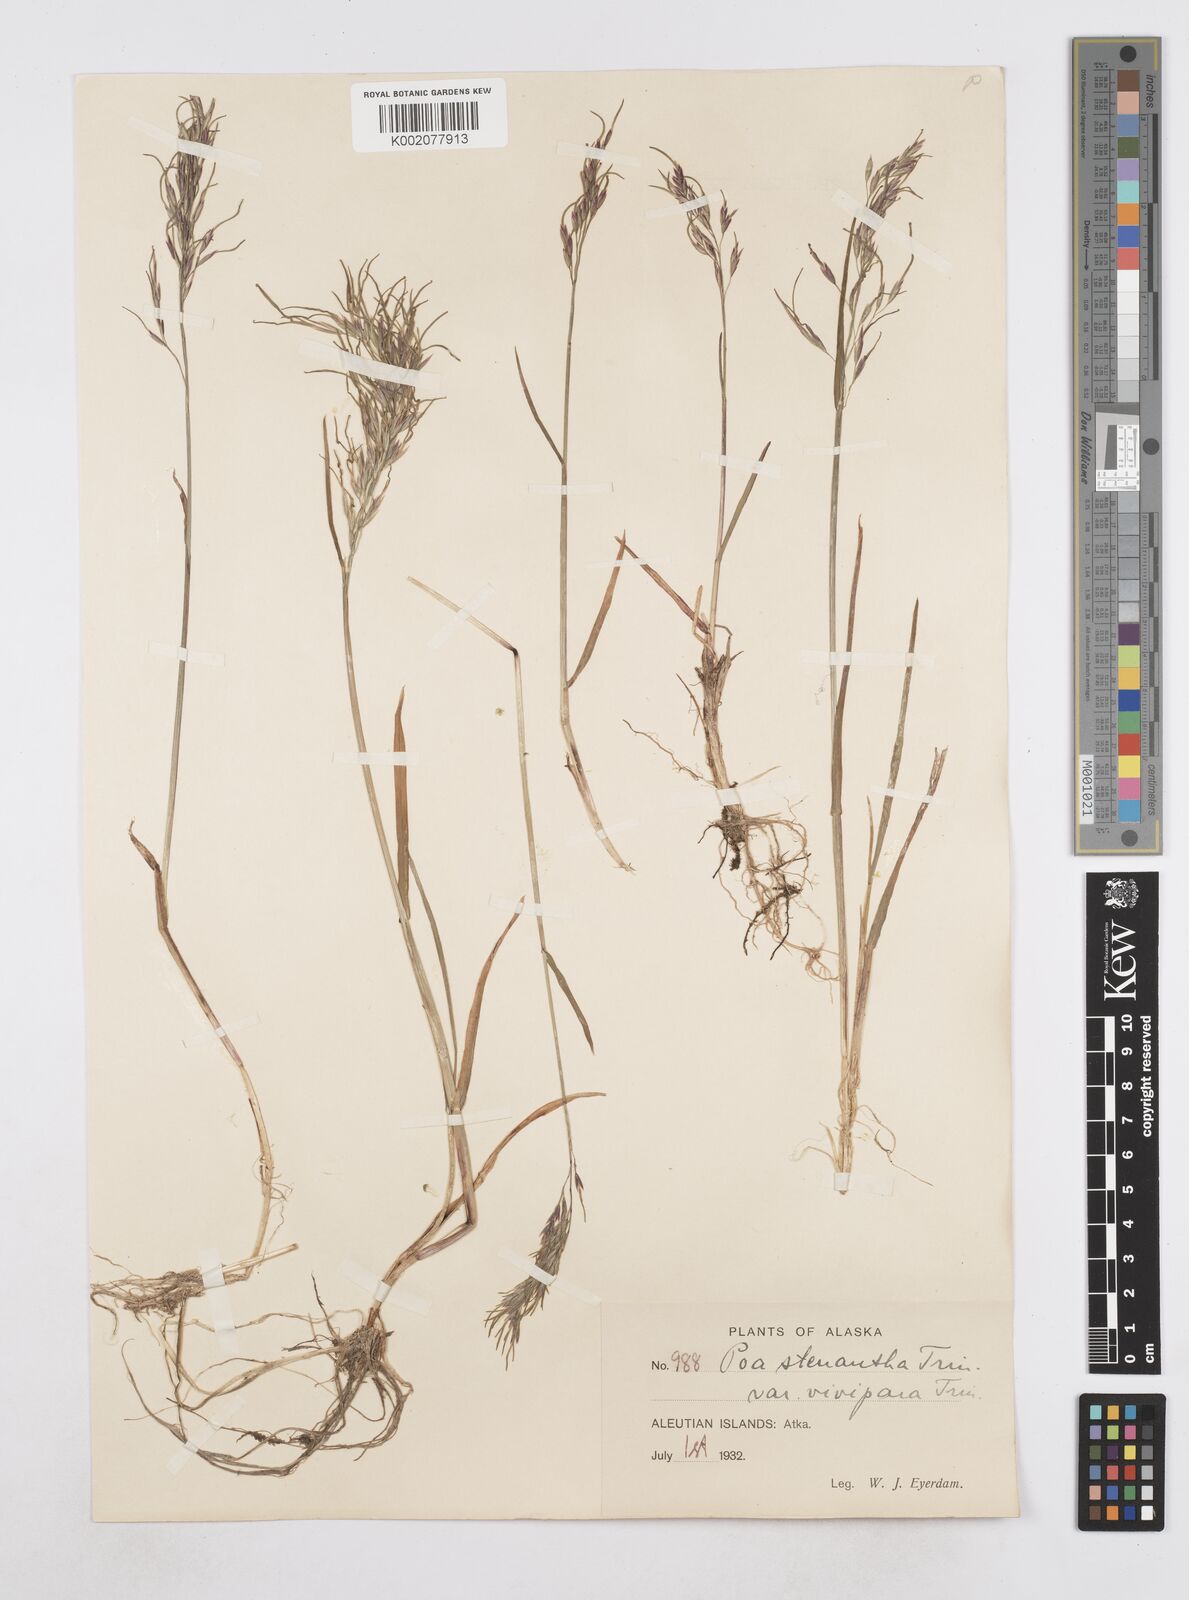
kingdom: Plantae
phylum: Tracheophyta
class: Liliopsida
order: Poales
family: Poaceae
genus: Poa
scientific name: Poa stenantha
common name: Narrow-flowered bluegrass
